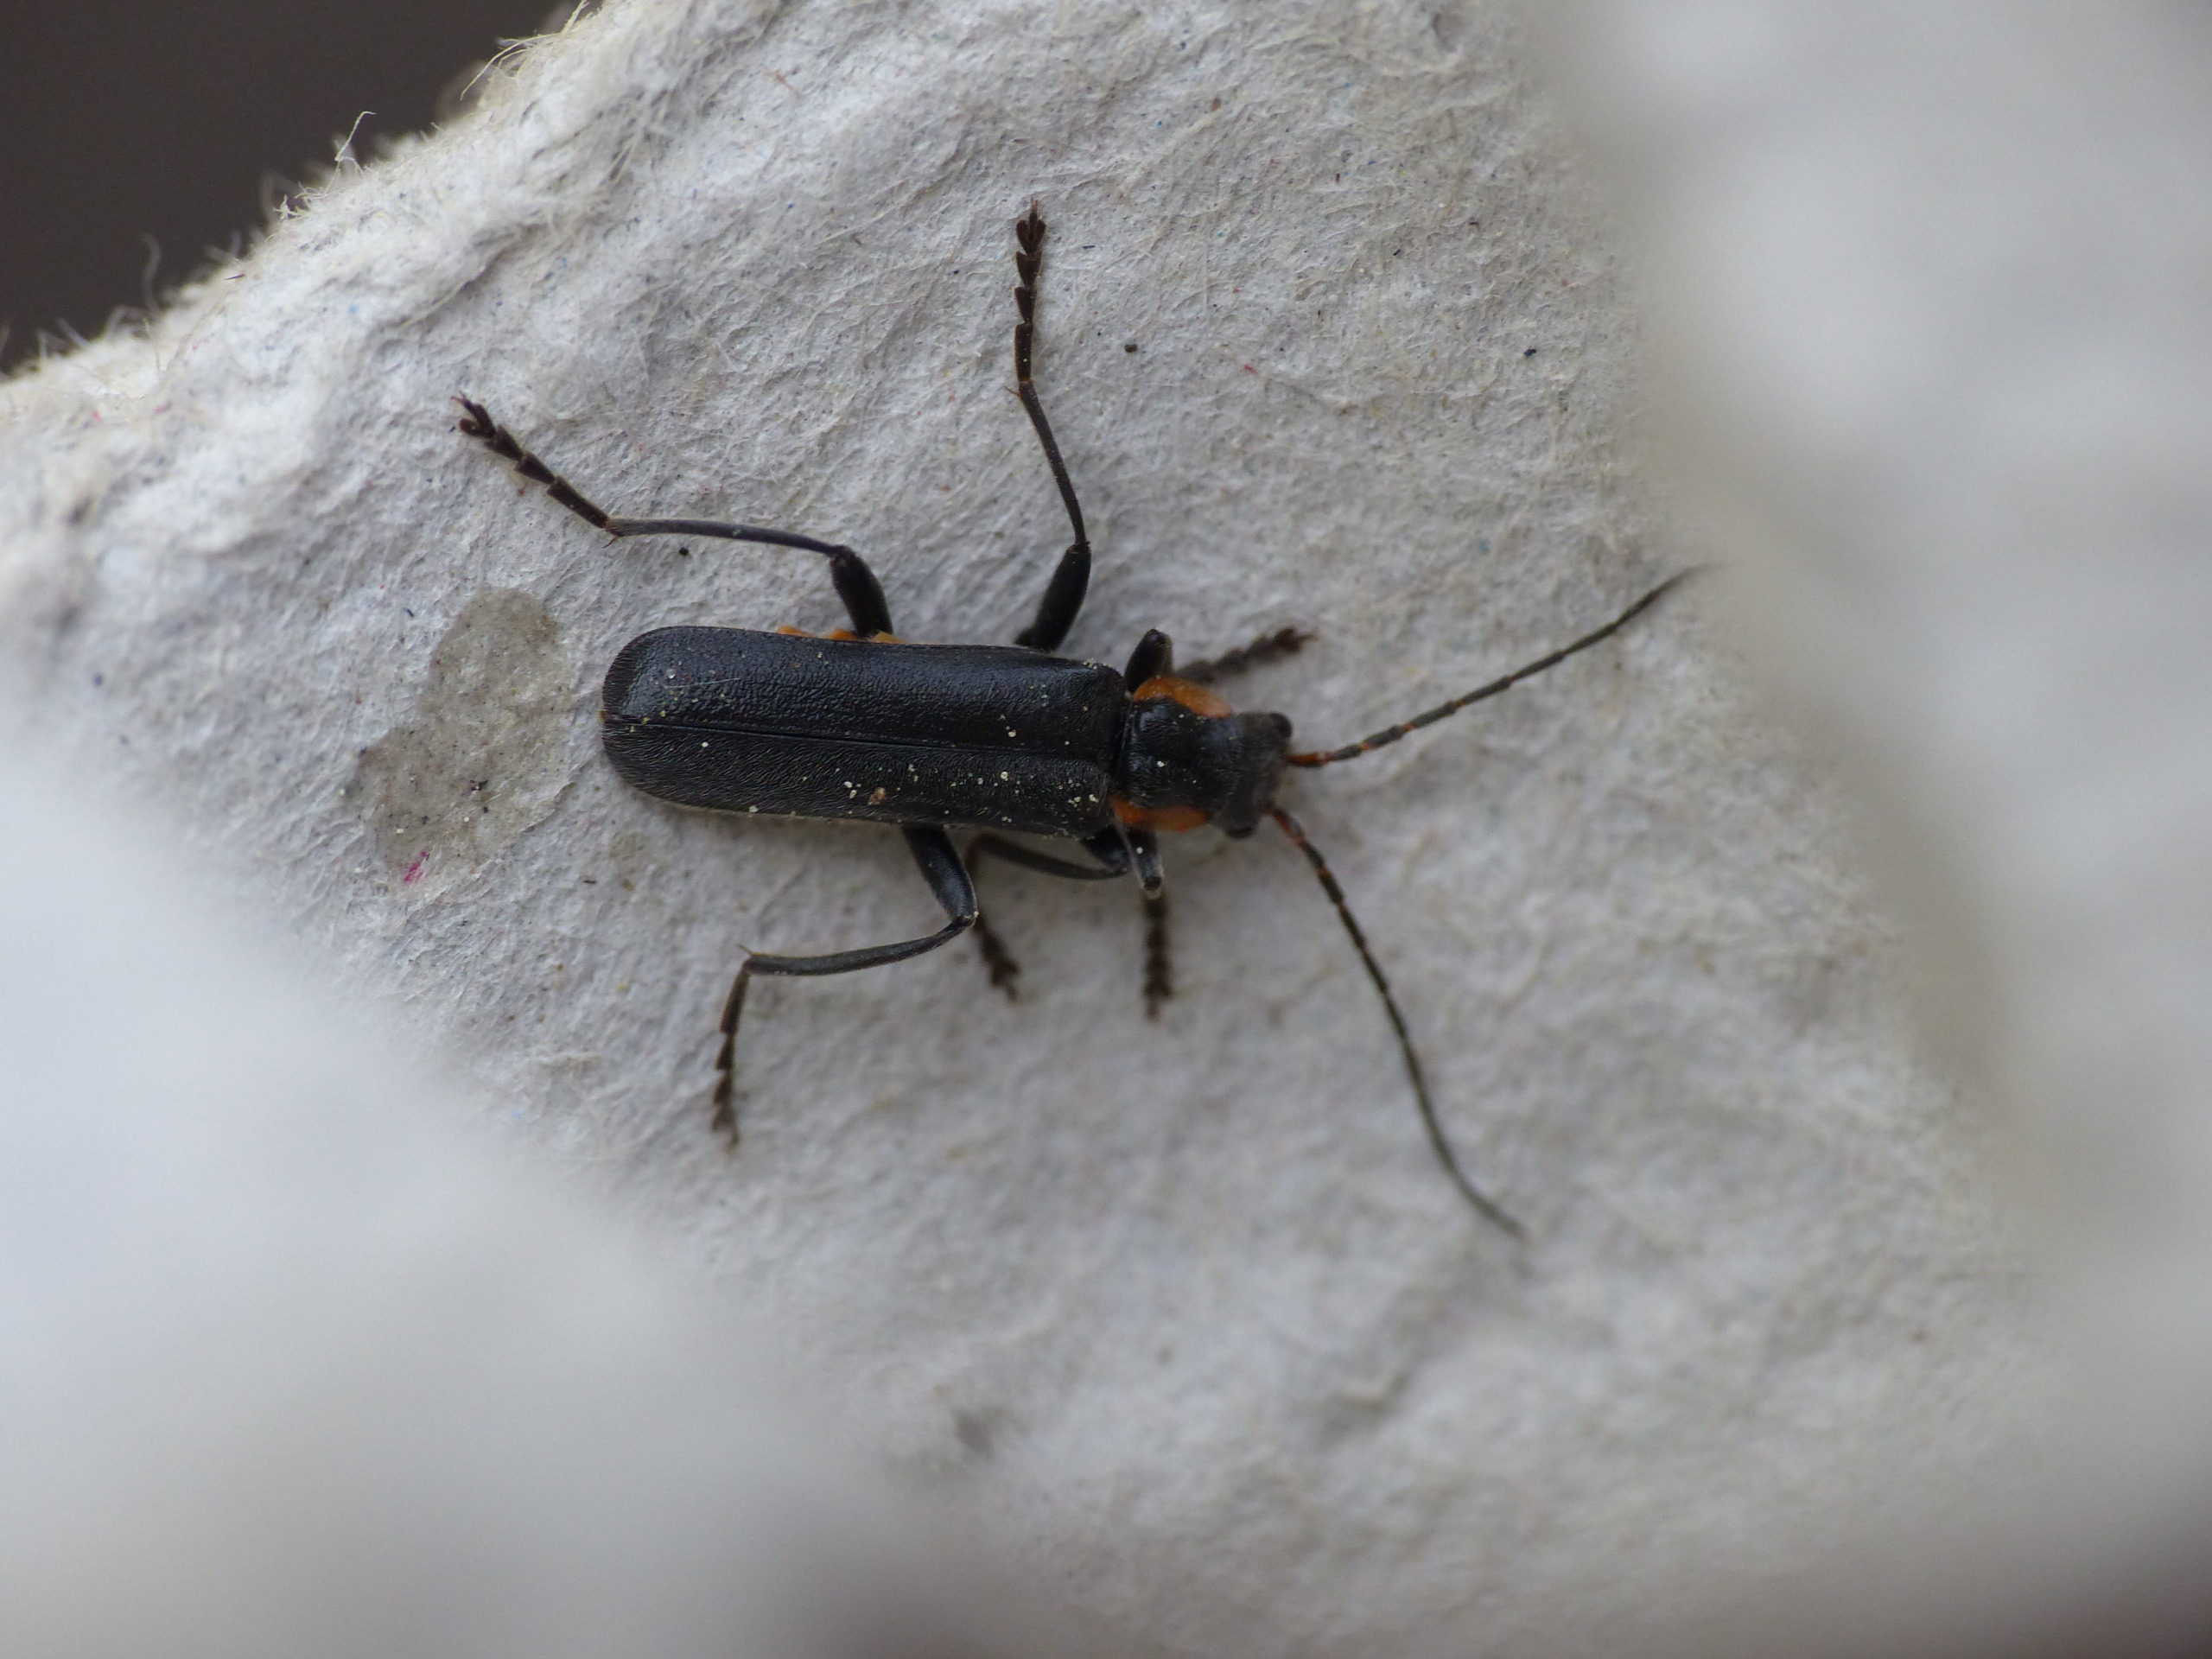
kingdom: Animalia
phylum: Arthropoda
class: Insecta
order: Coleoptera
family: Cantharidae
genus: Cantharis
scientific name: Cantharis obscura
